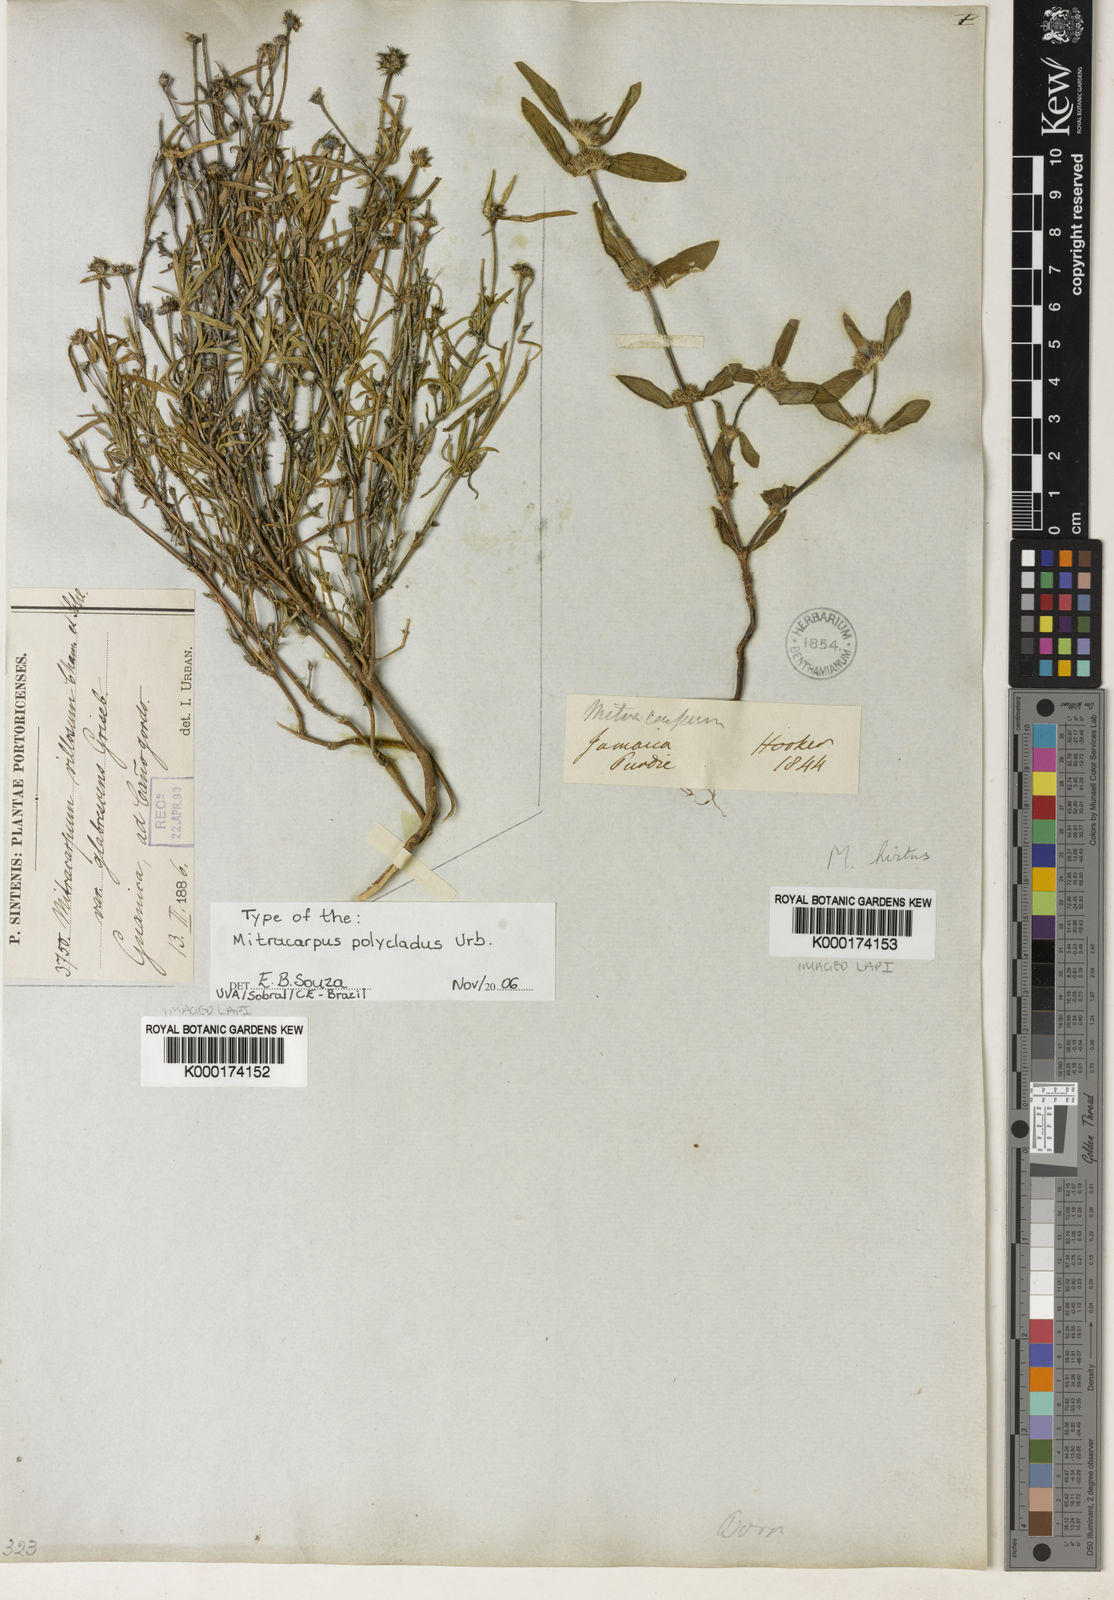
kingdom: Plantae
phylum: Tracheophyta
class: Magnoliopsida
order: Gentianales
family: Rubiaceae
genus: Mitracarpus
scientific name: Mitracarpus polycladus
